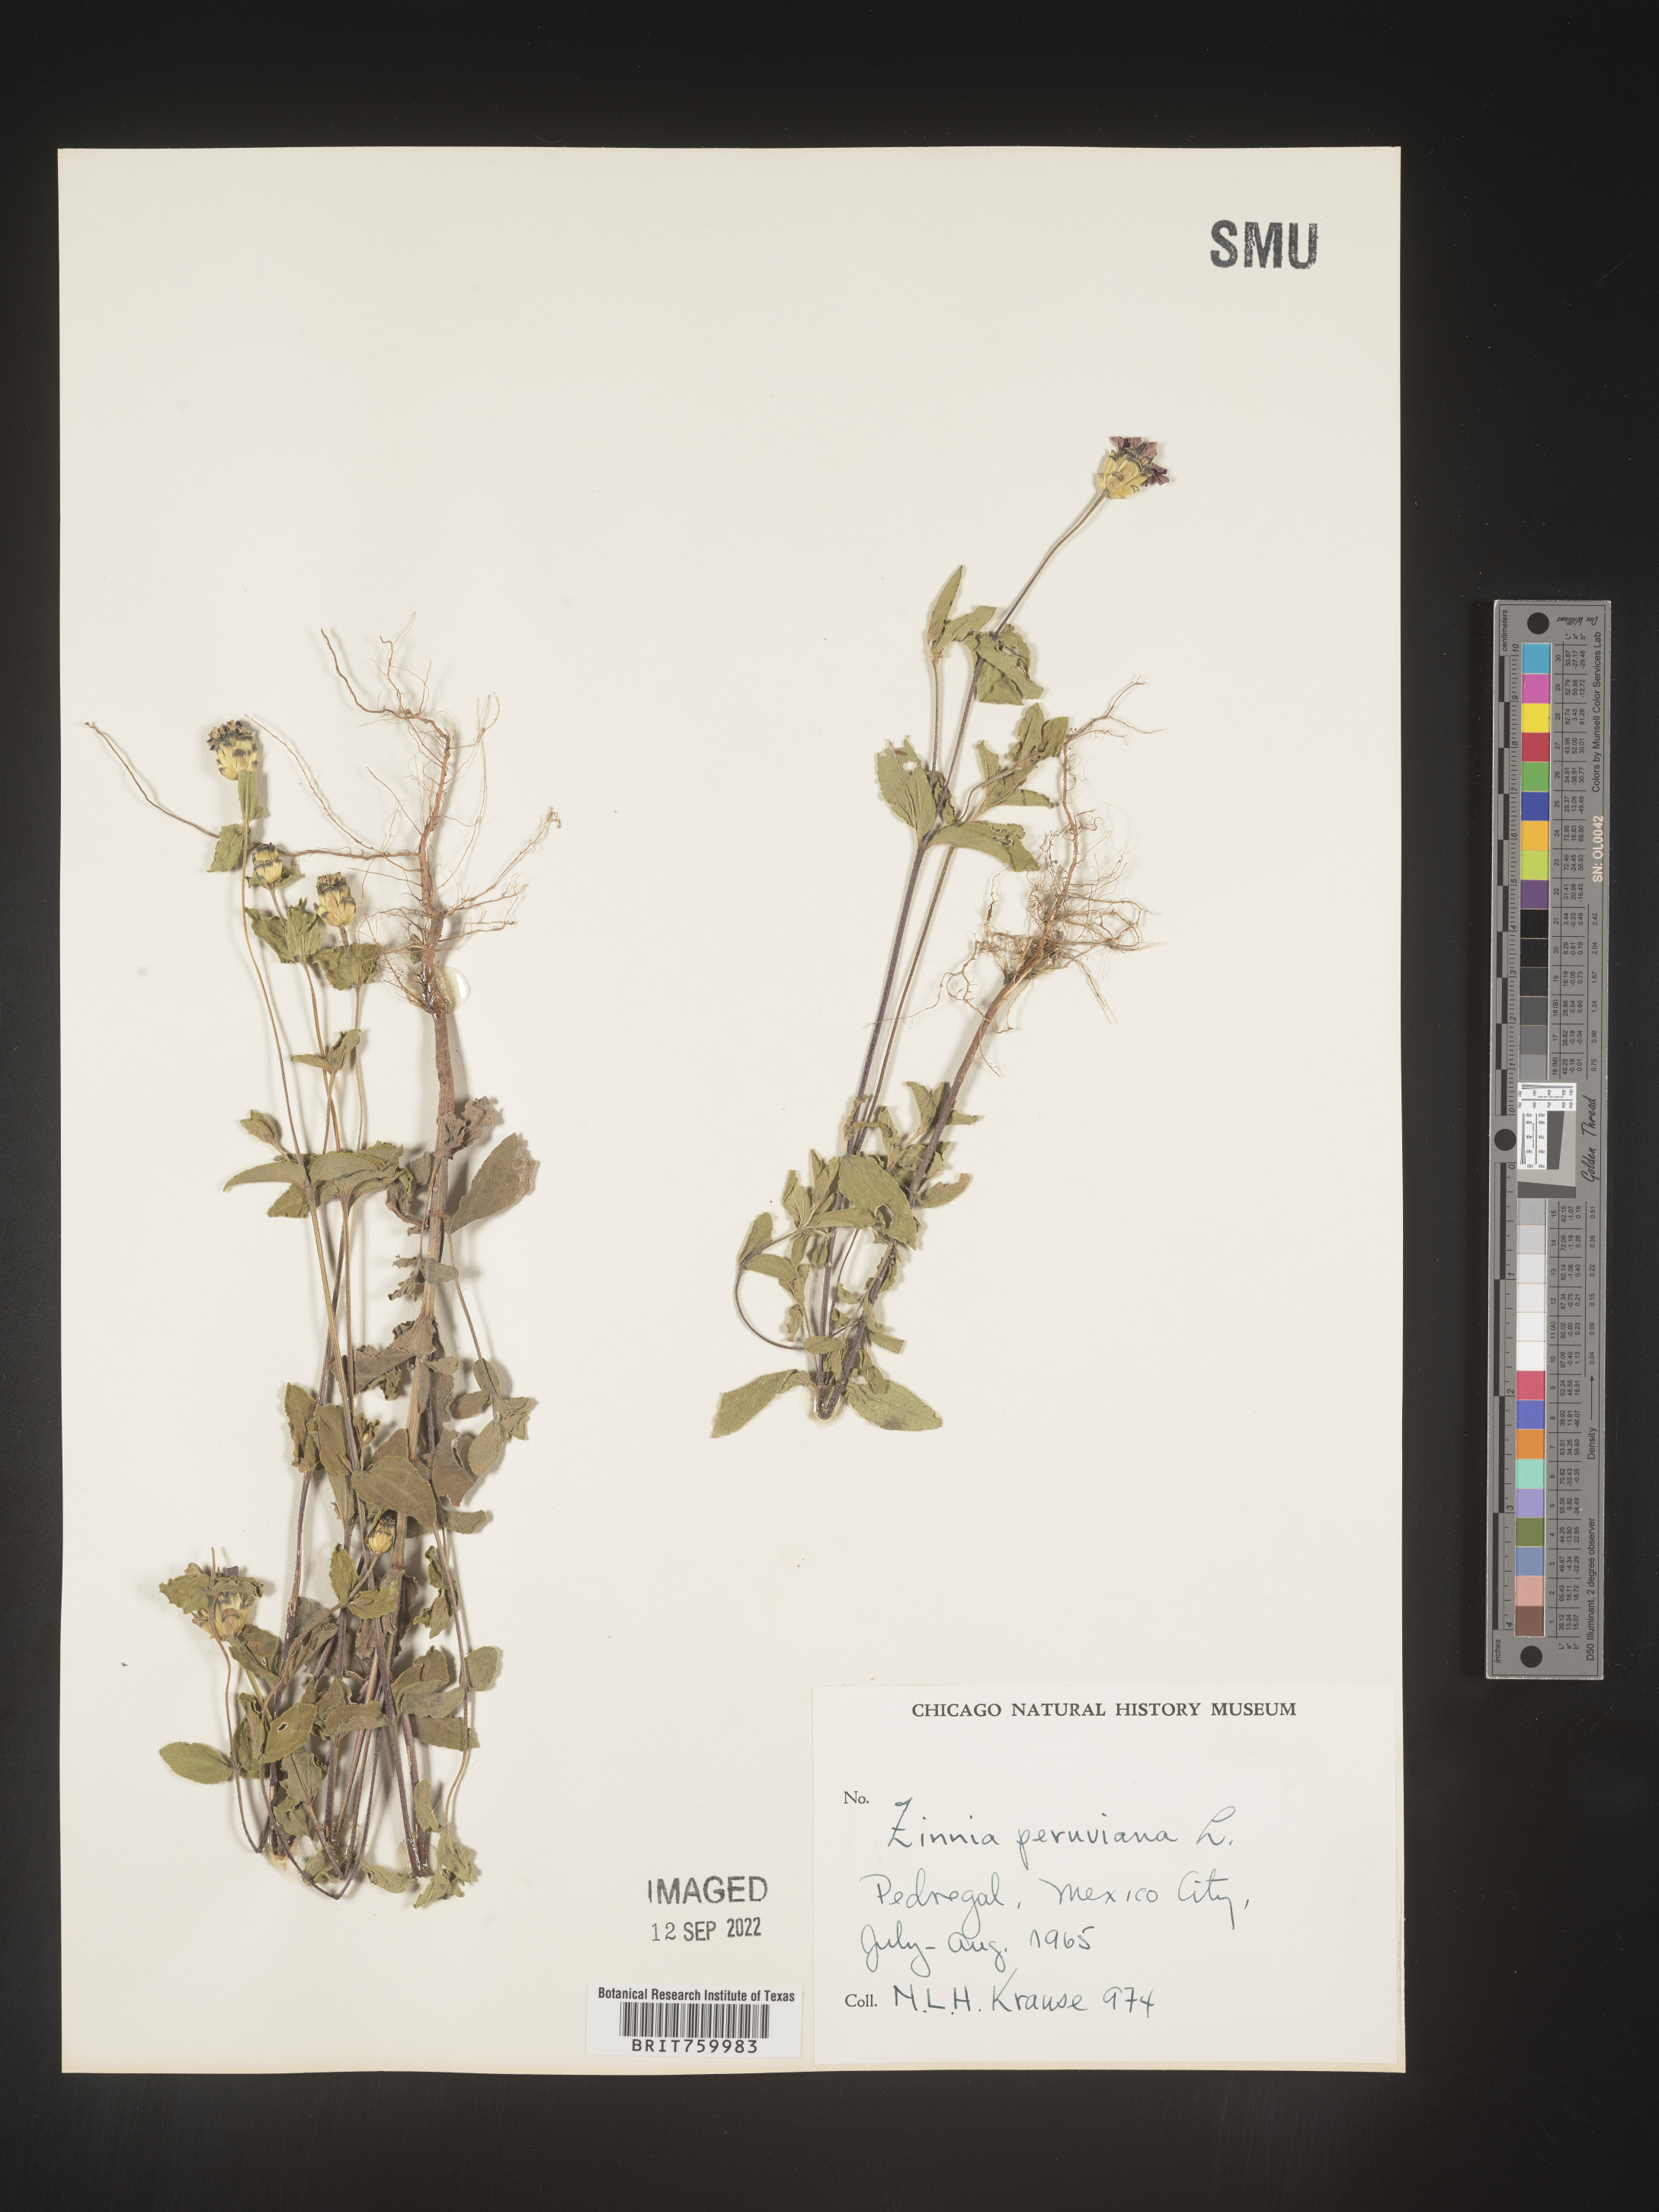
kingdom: Plantae
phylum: Tracheophyta
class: Magnoliopsida
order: Asterales
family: Asteraceae
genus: Zinnia
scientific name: Zinnia
